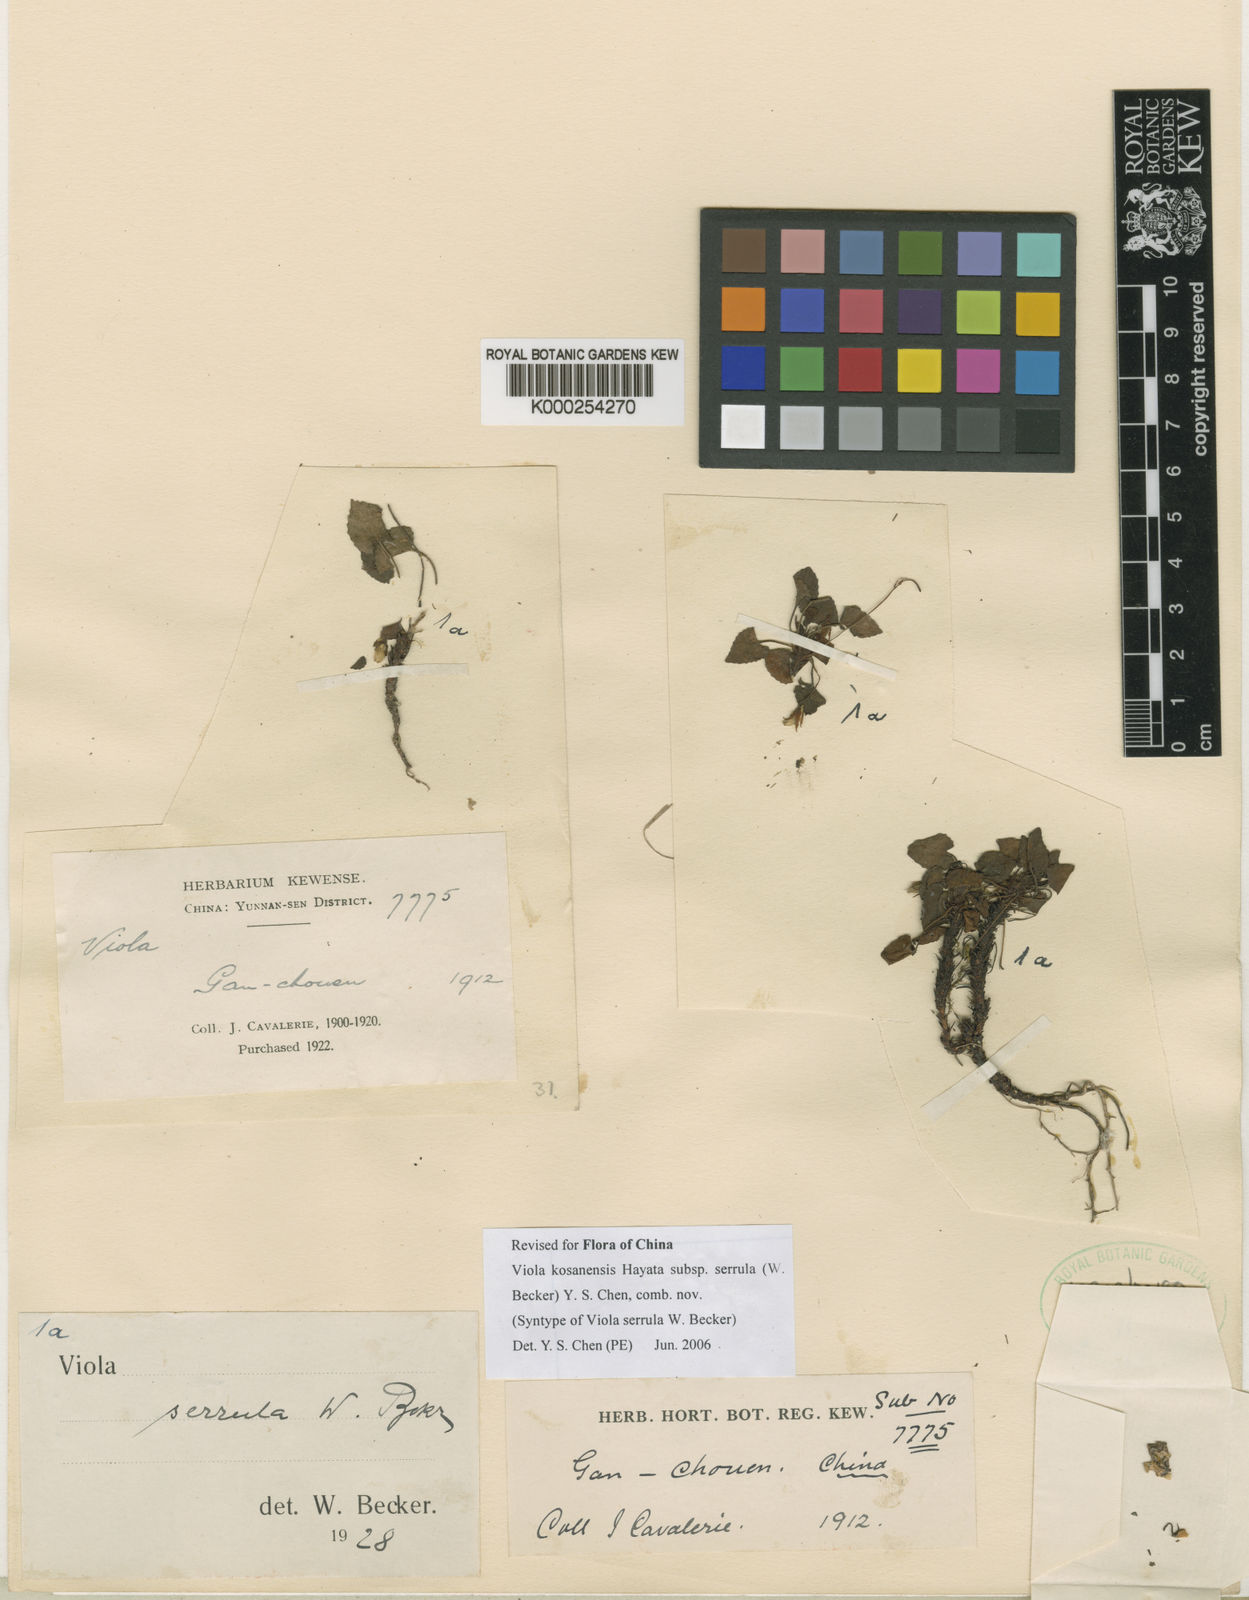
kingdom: Plantae
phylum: Tracheophyta
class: Magnoliopsida
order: Malpighiales
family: Violaceae
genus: Viola
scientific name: Viola serrula
